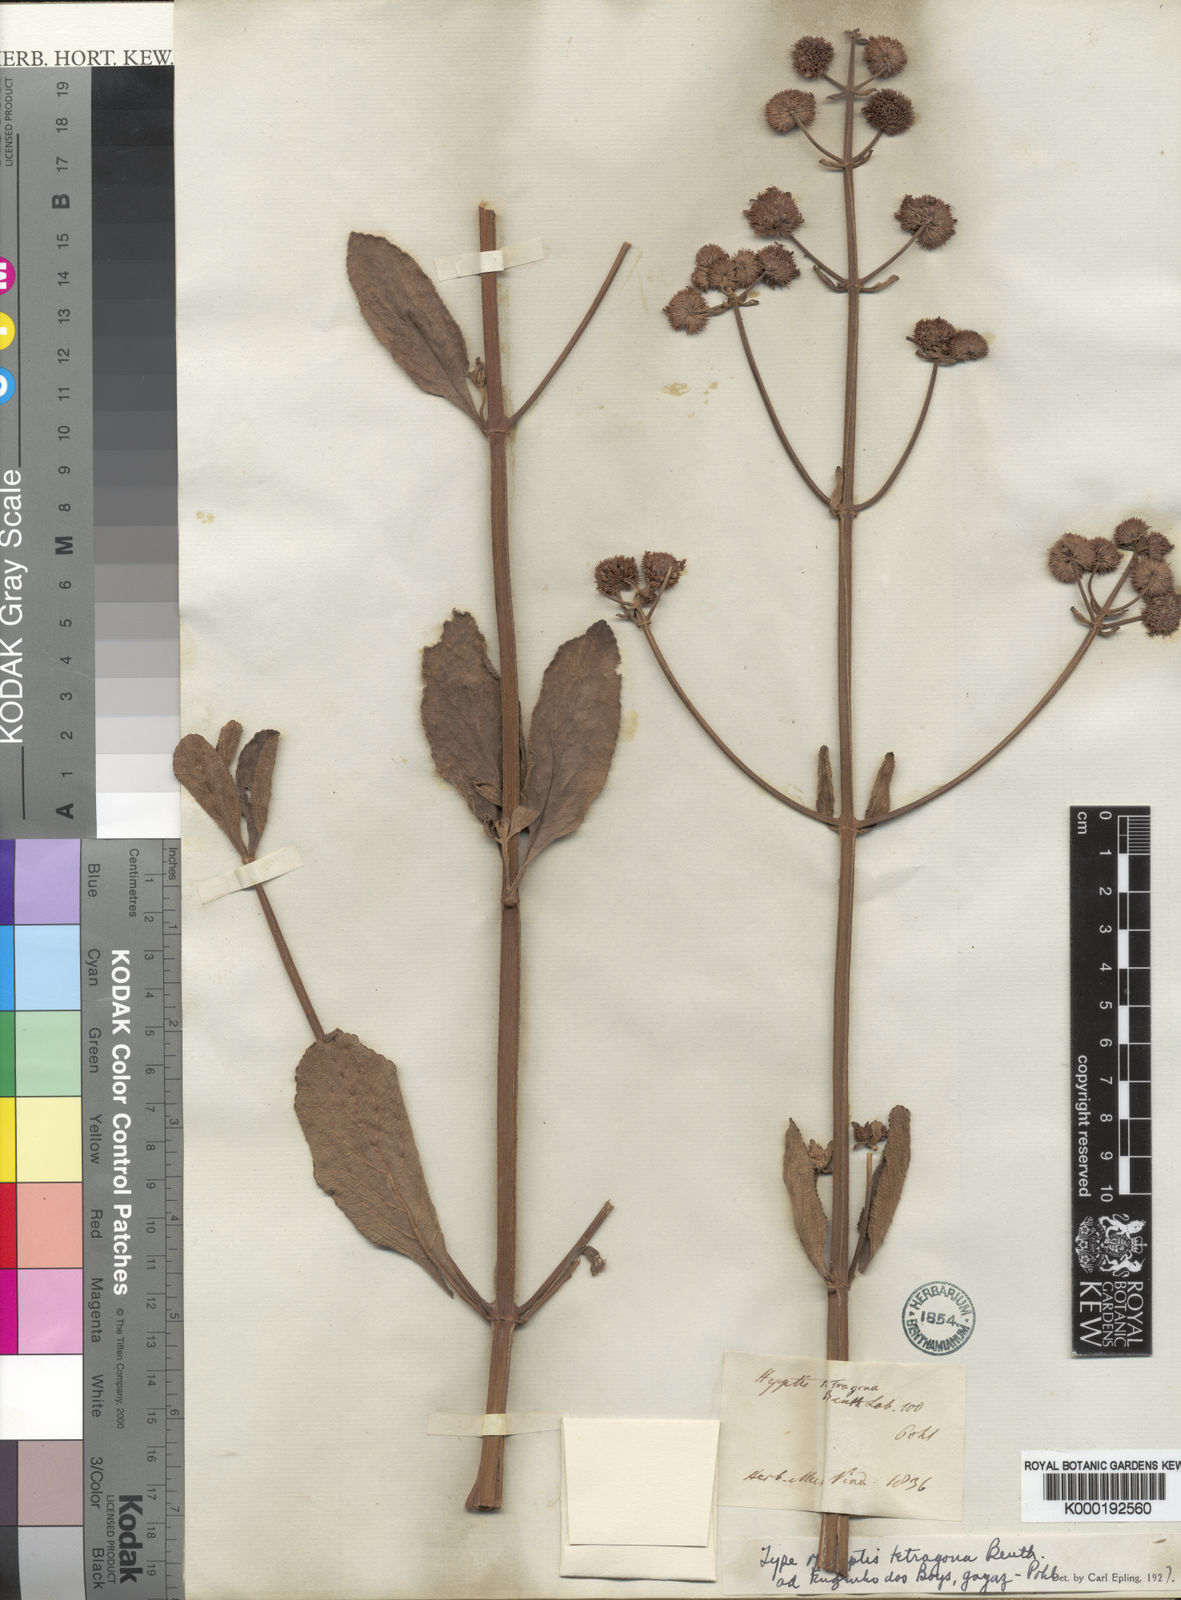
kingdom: Plantae
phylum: Tracheophyta
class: Magnoliopsida
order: Lamiales
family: Lamiaceae
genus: Hyptis
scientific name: Hyptis tetragona
